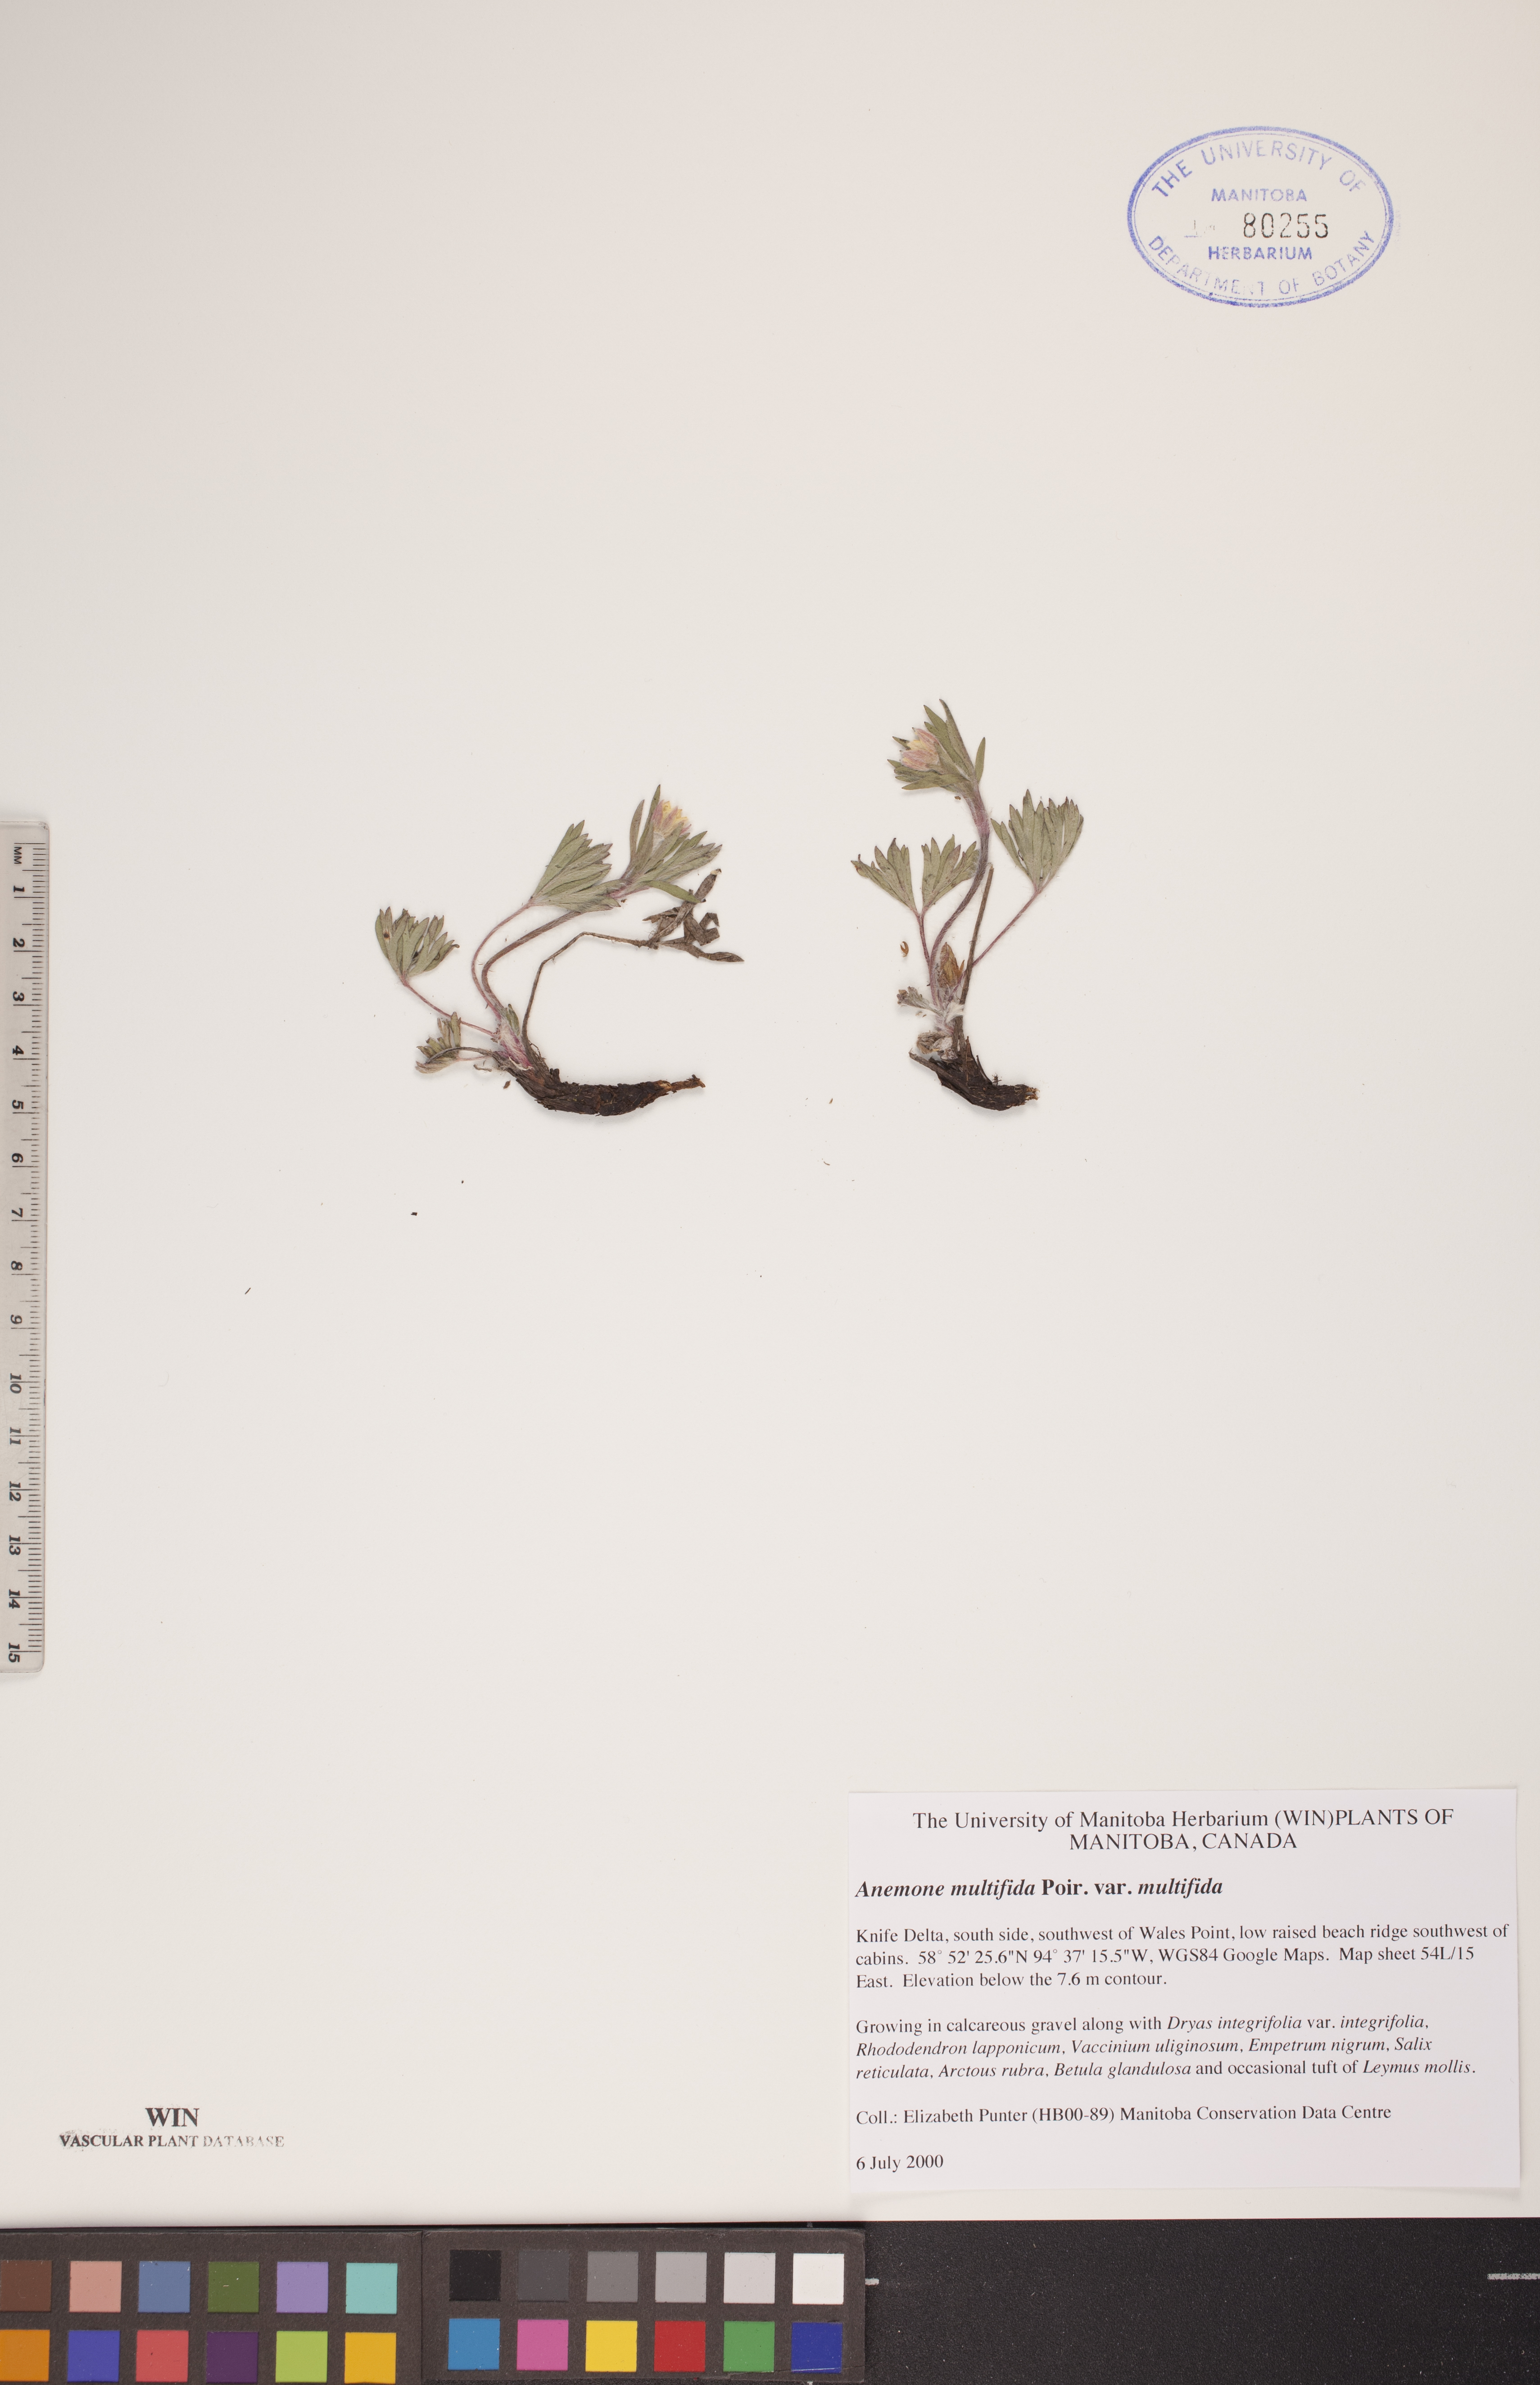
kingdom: Plantae
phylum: Tracheophyta
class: Magnoliopsida
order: Ranunculales
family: Ranunculaceae
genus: Anemone
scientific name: Anemone multifida
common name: Bird's-foot anemone
